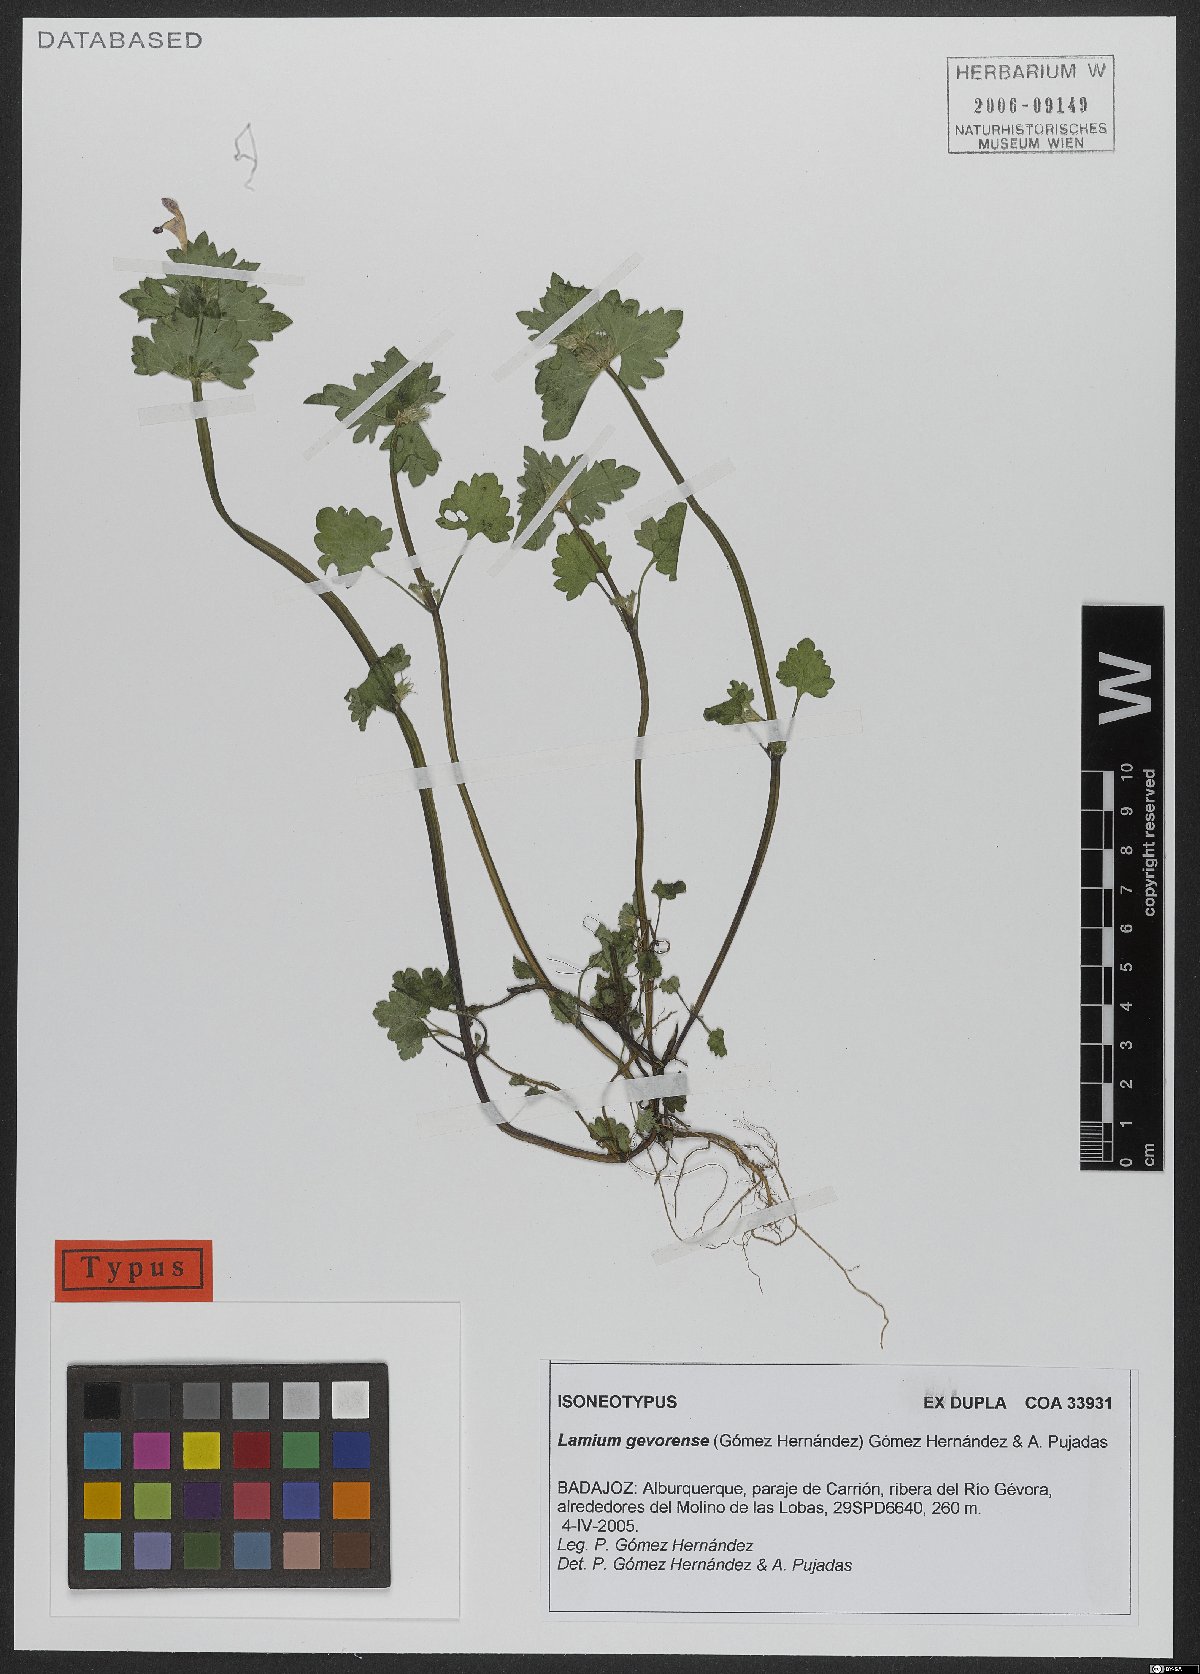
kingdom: Plantae
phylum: Tracheophyta
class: Magnoliopsida
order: Lamiales
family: Lamiaceae
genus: Lamium
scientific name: Lamium gevorense
